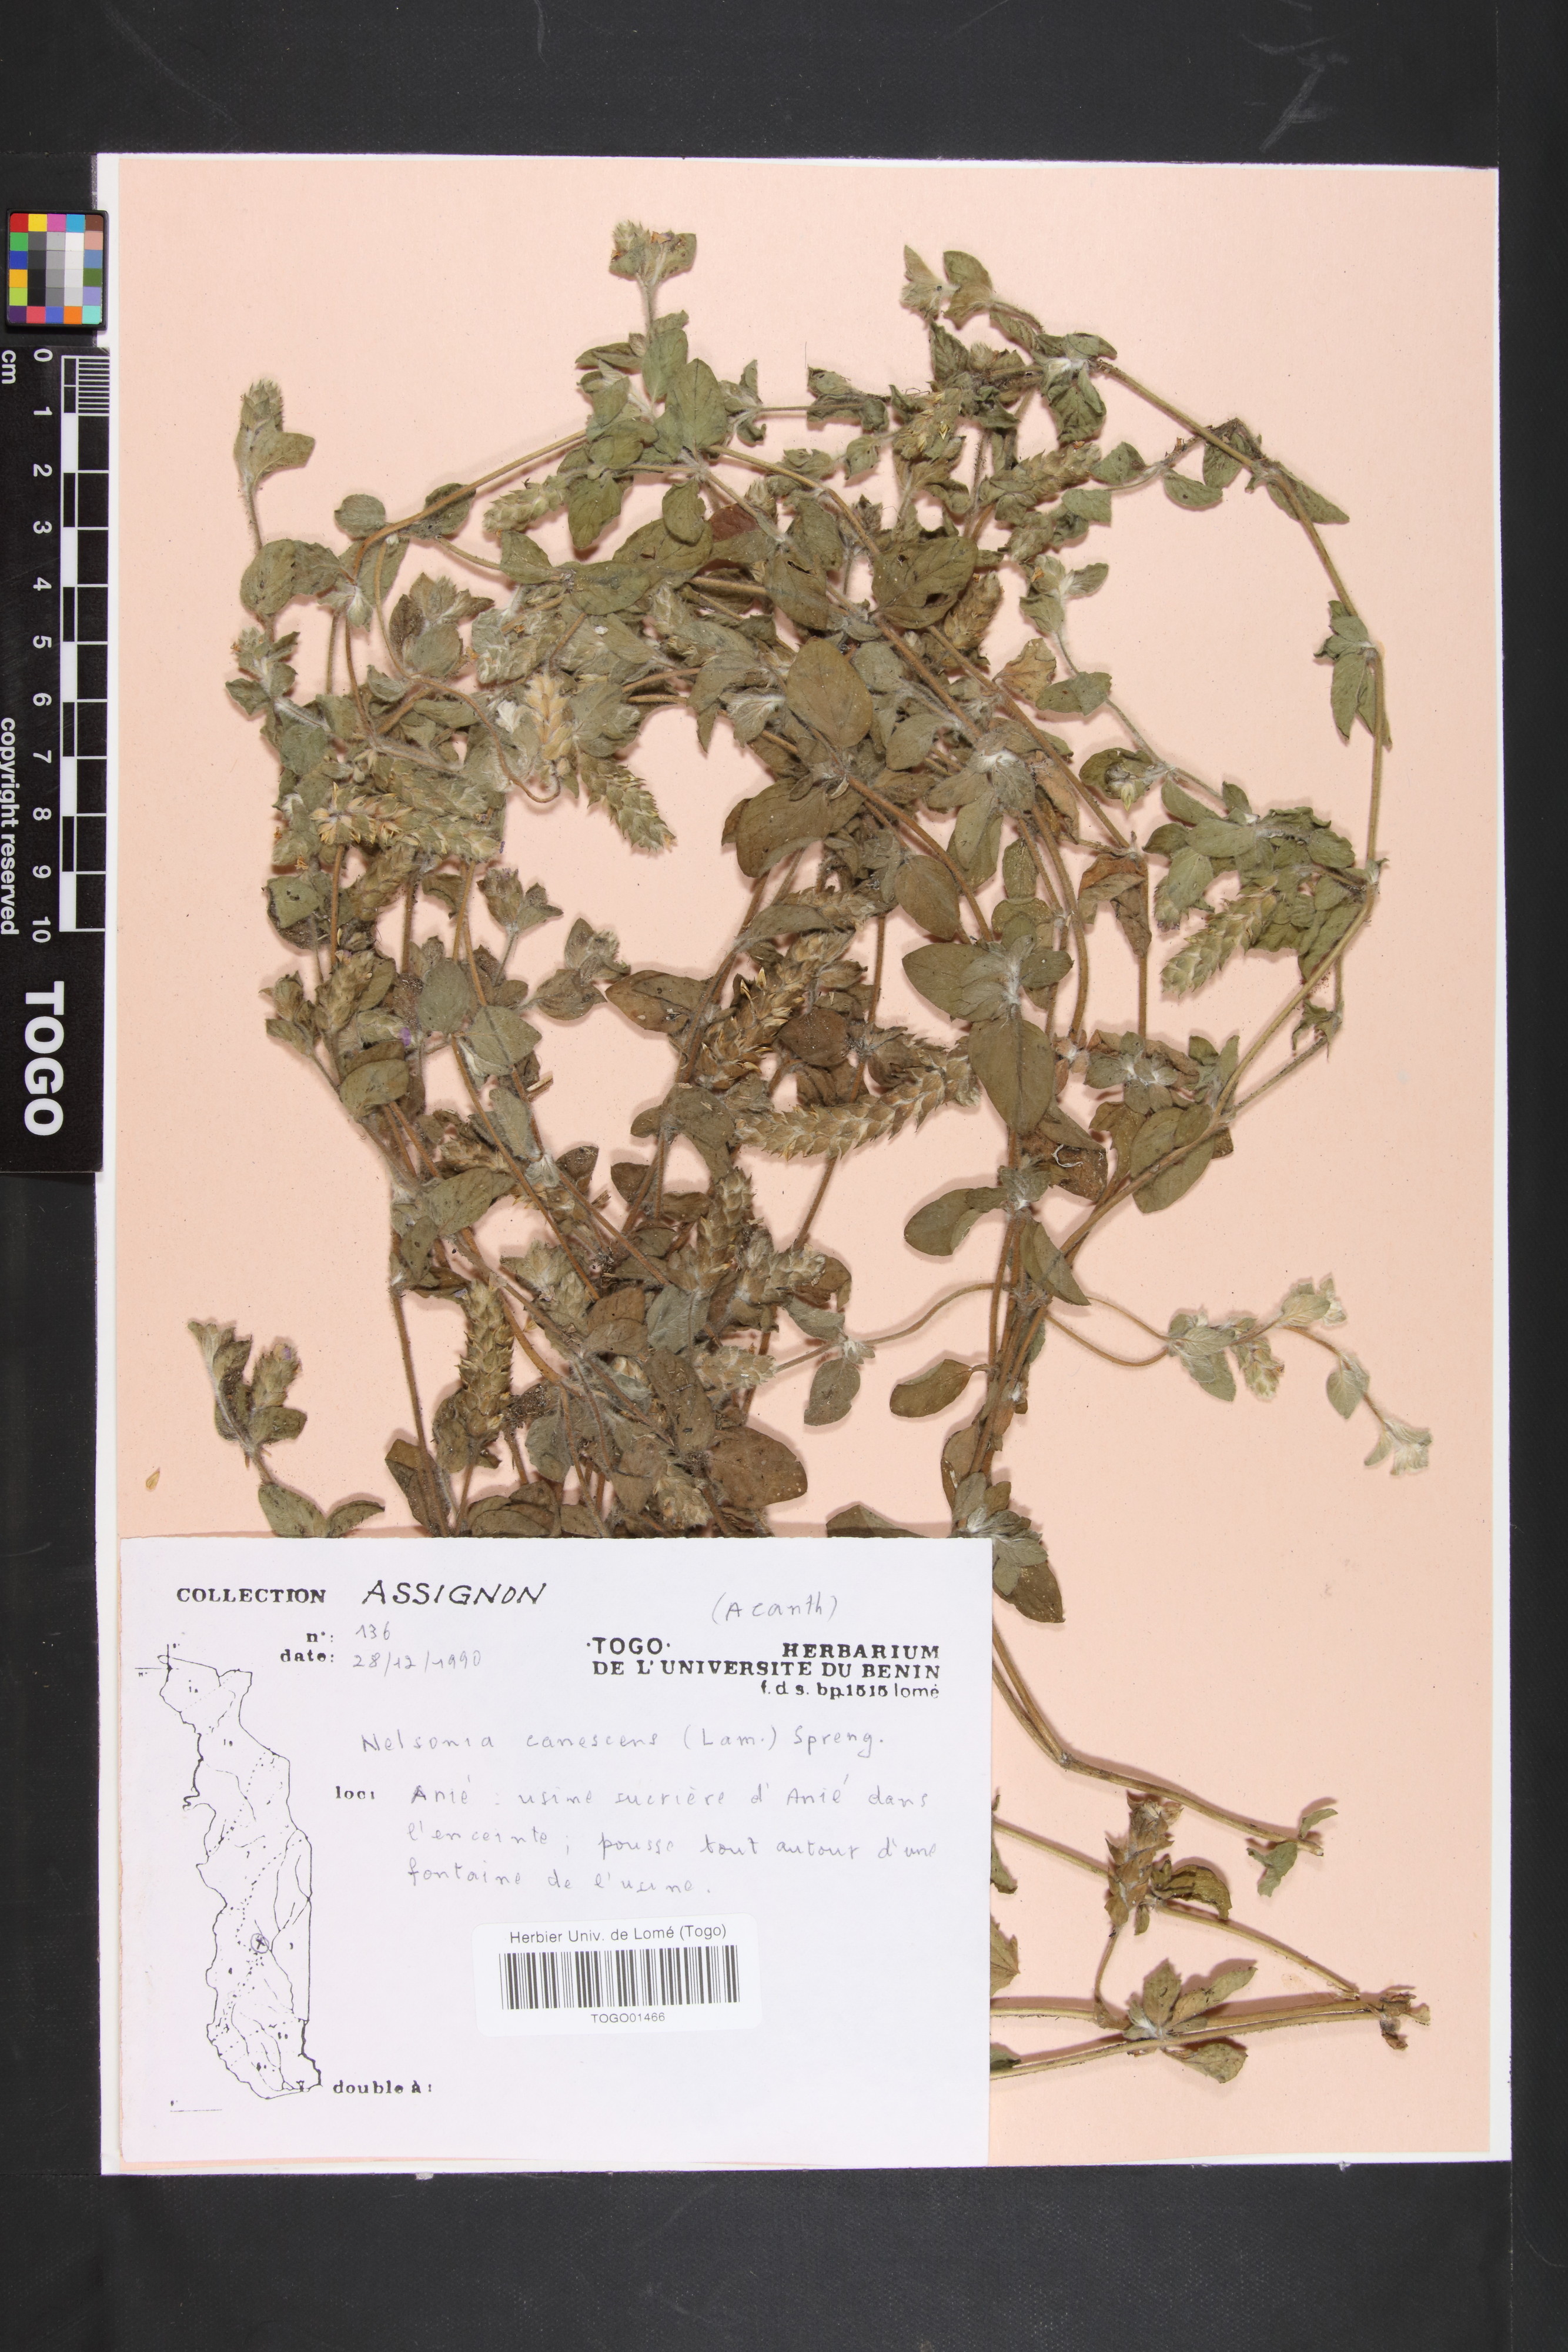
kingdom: Plantae
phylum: Tracheophyta
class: Magnoliopsida
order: Lamiales
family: Acanthaceae
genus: Nelsonia
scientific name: Nelsonia canescens
